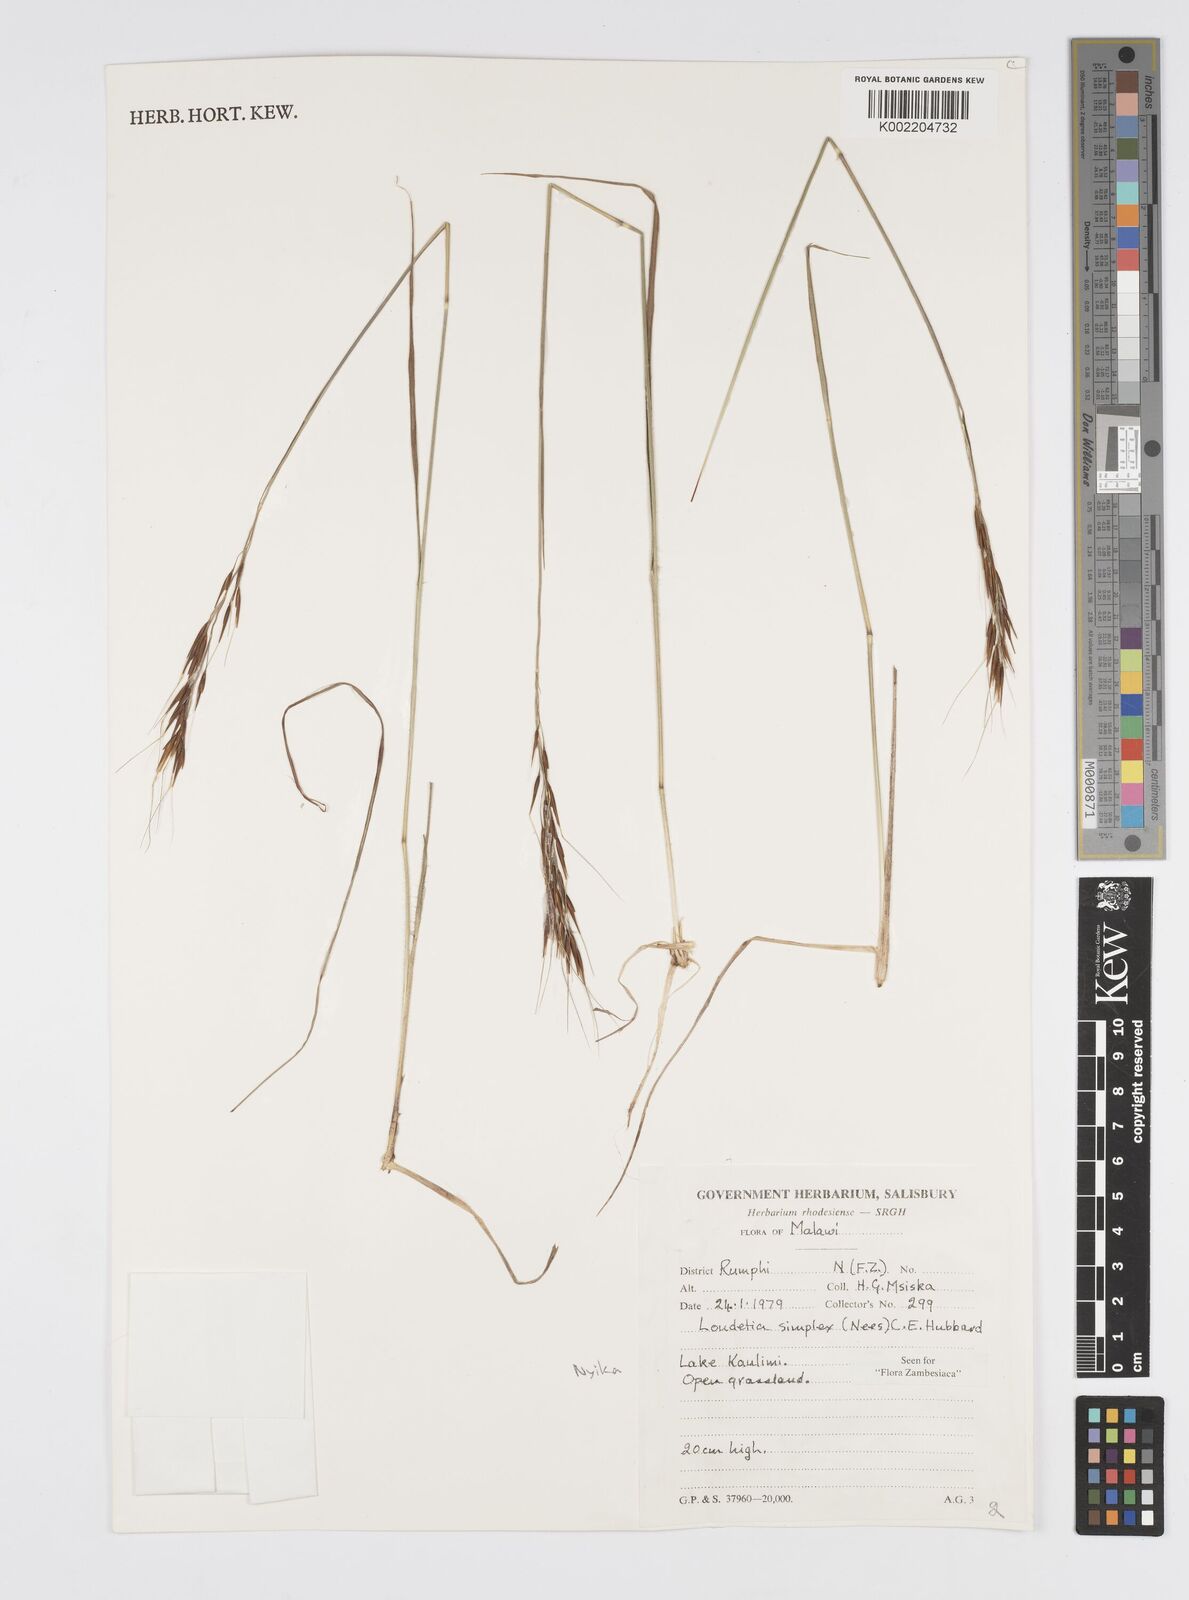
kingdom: Plantae
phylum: Tracheophyta
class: Liliopsida
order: Poales
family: Poaceae
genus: Loudetia
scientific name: Loudetia simplex
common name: Common russet grass
